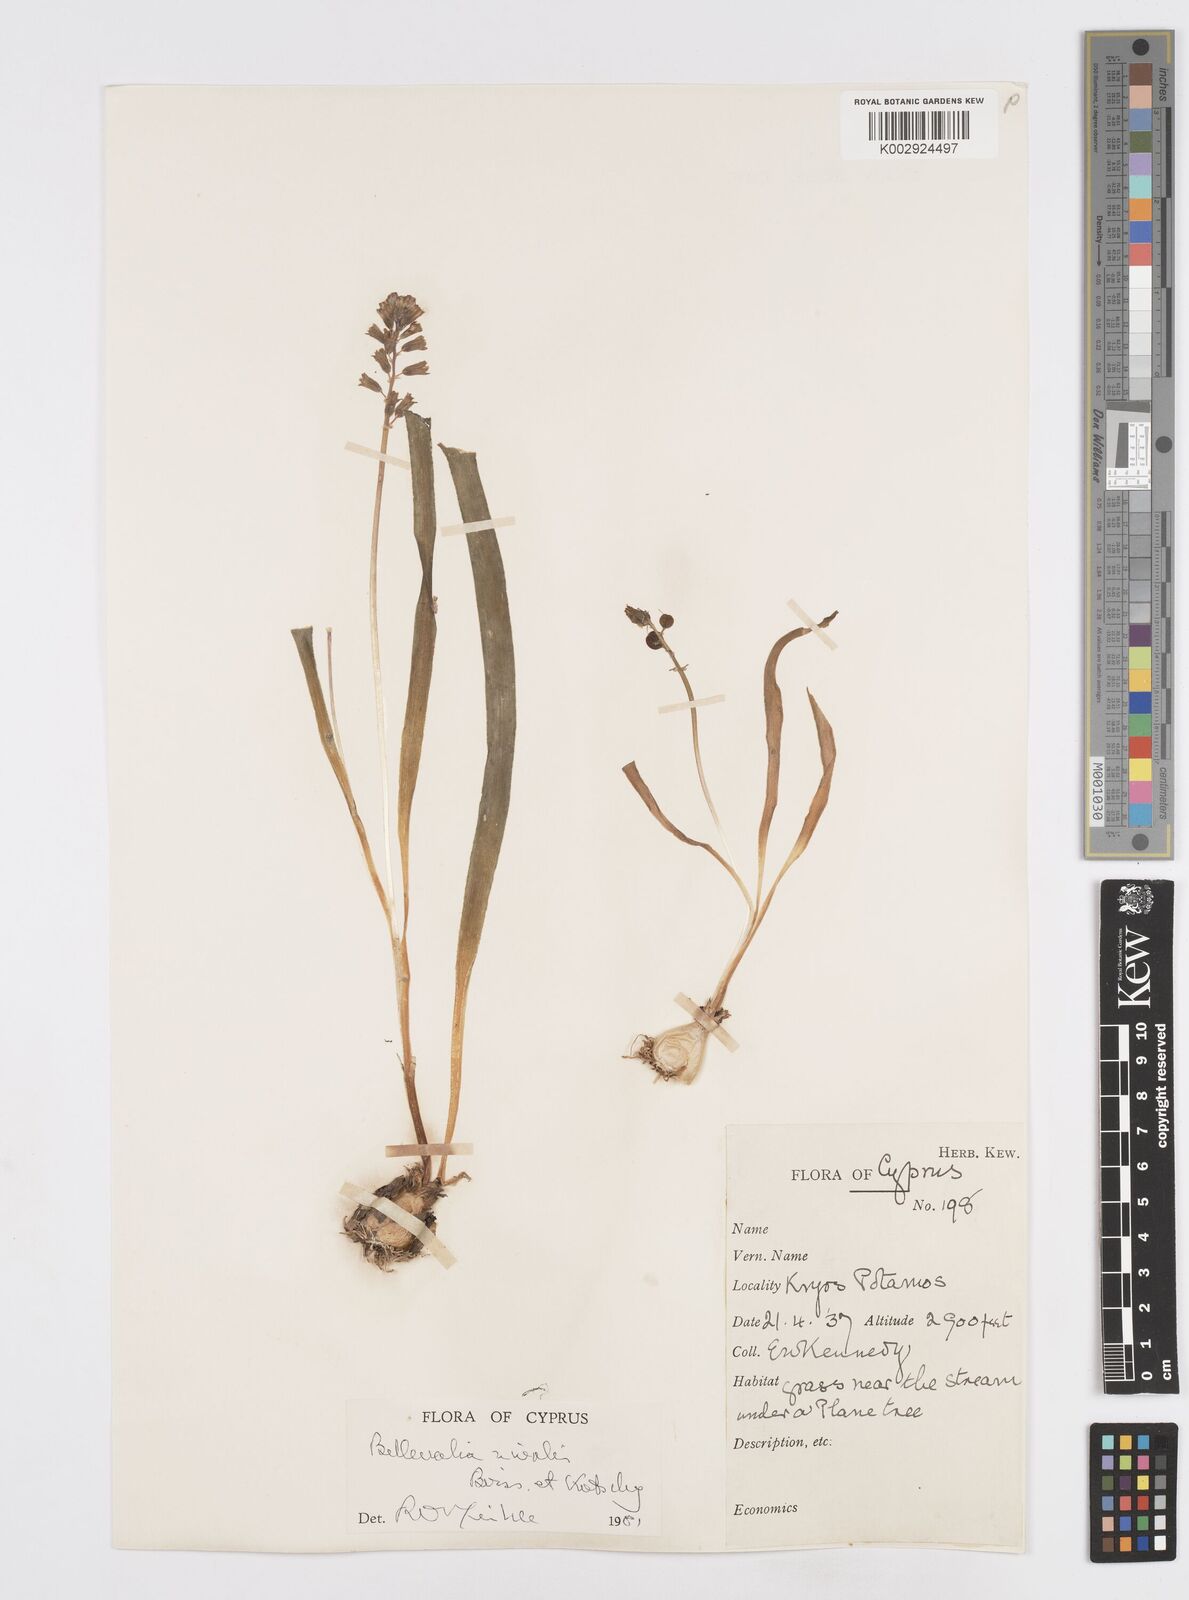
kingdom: Plantae
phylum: Tracheophyta
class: Liliopsida
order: Asparagales
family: Asparagaceae
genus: Bellevalia
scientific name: Bellevalia nivalis
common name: Snow bellevalia
